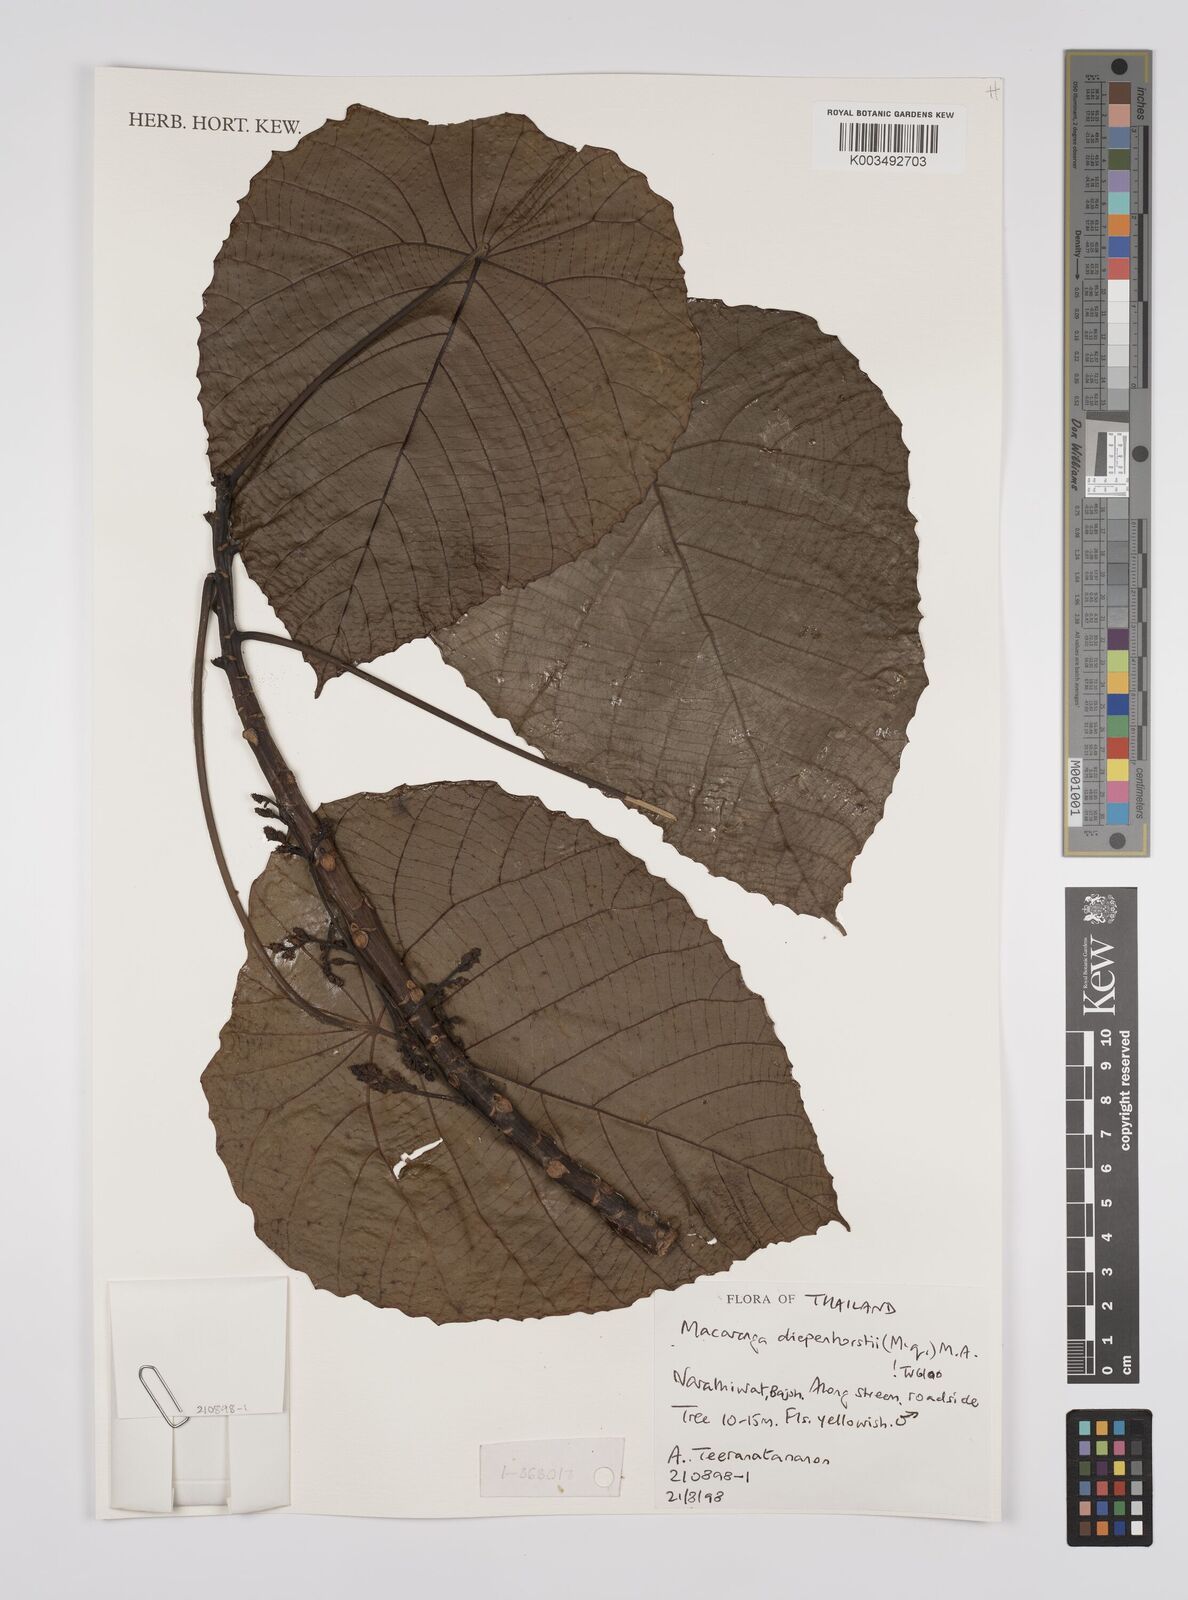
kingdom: Plantae
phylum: Tracheophyta
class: Magnoliopsida
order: Malpighiales
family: Euphorbiaceae
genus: Macaranga
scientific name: Macaranga diepenhorstii
